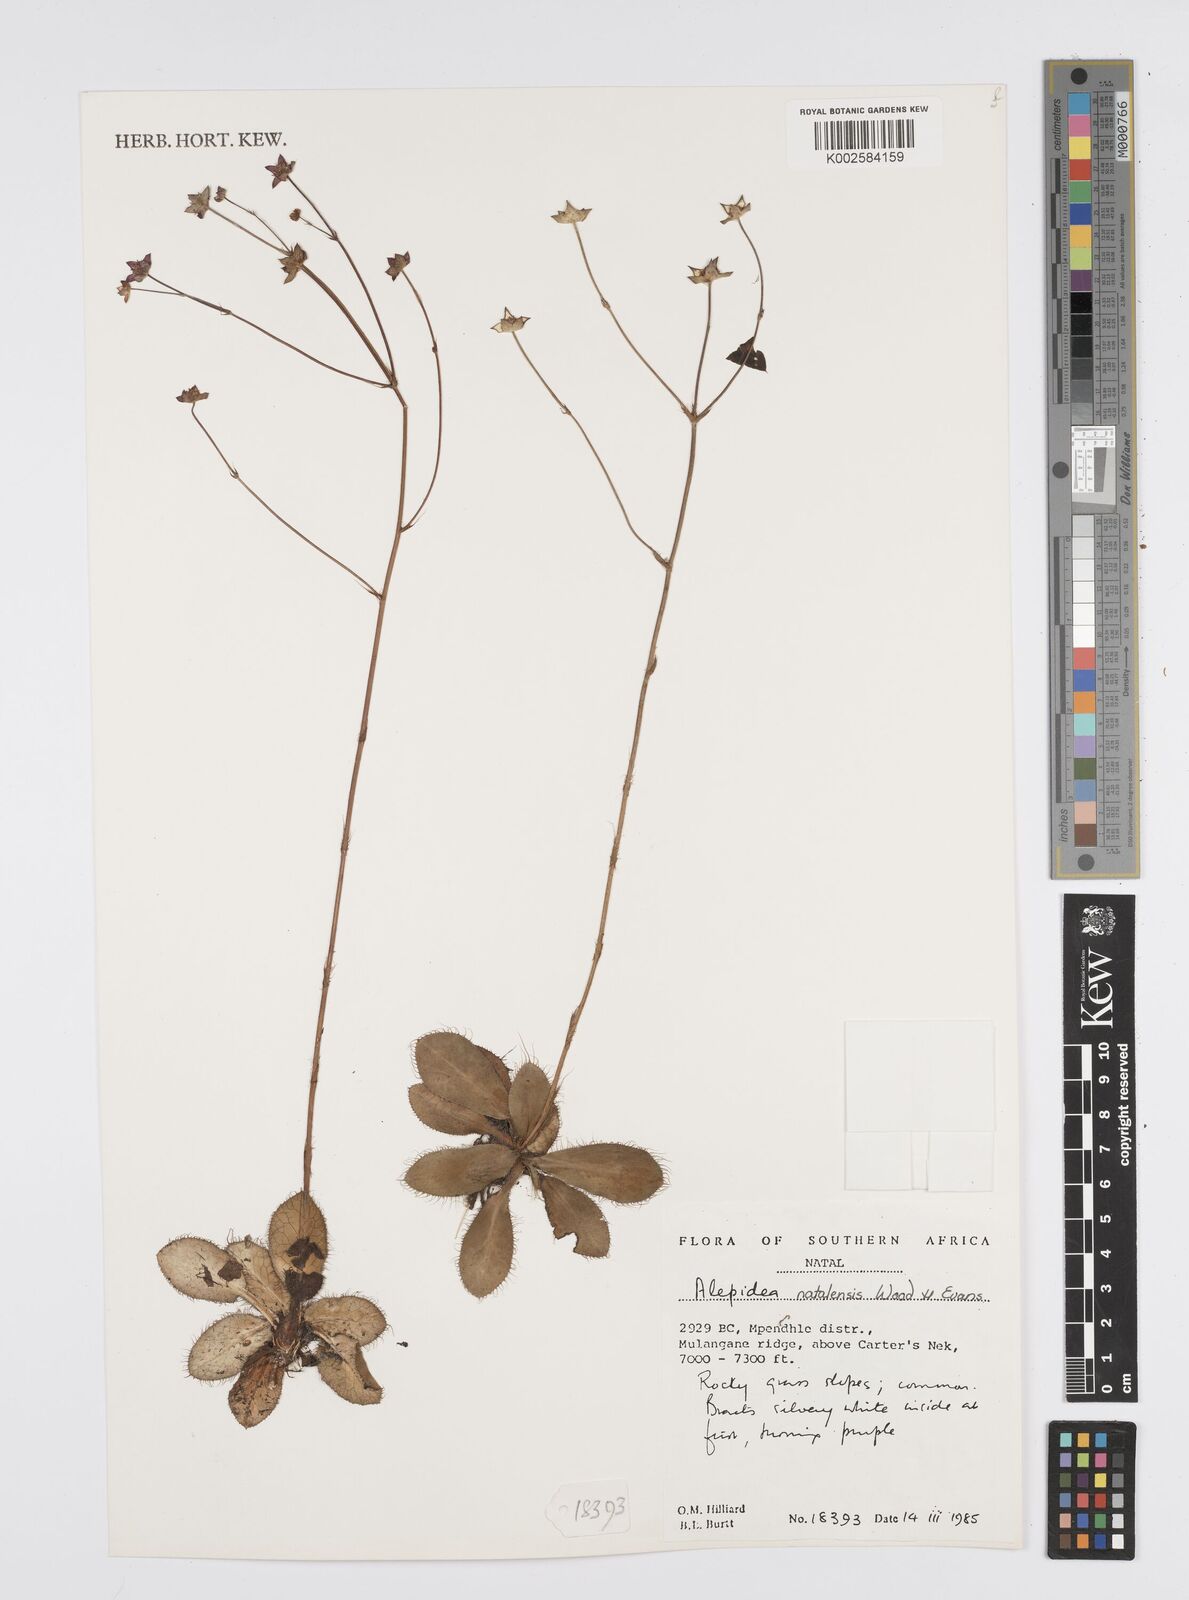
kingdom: Plantae
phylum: Tracheophyta
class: Magnoliopsida
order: Apiales
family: Apiaceae
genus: Alepidea
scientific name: Alepidea natalensis
